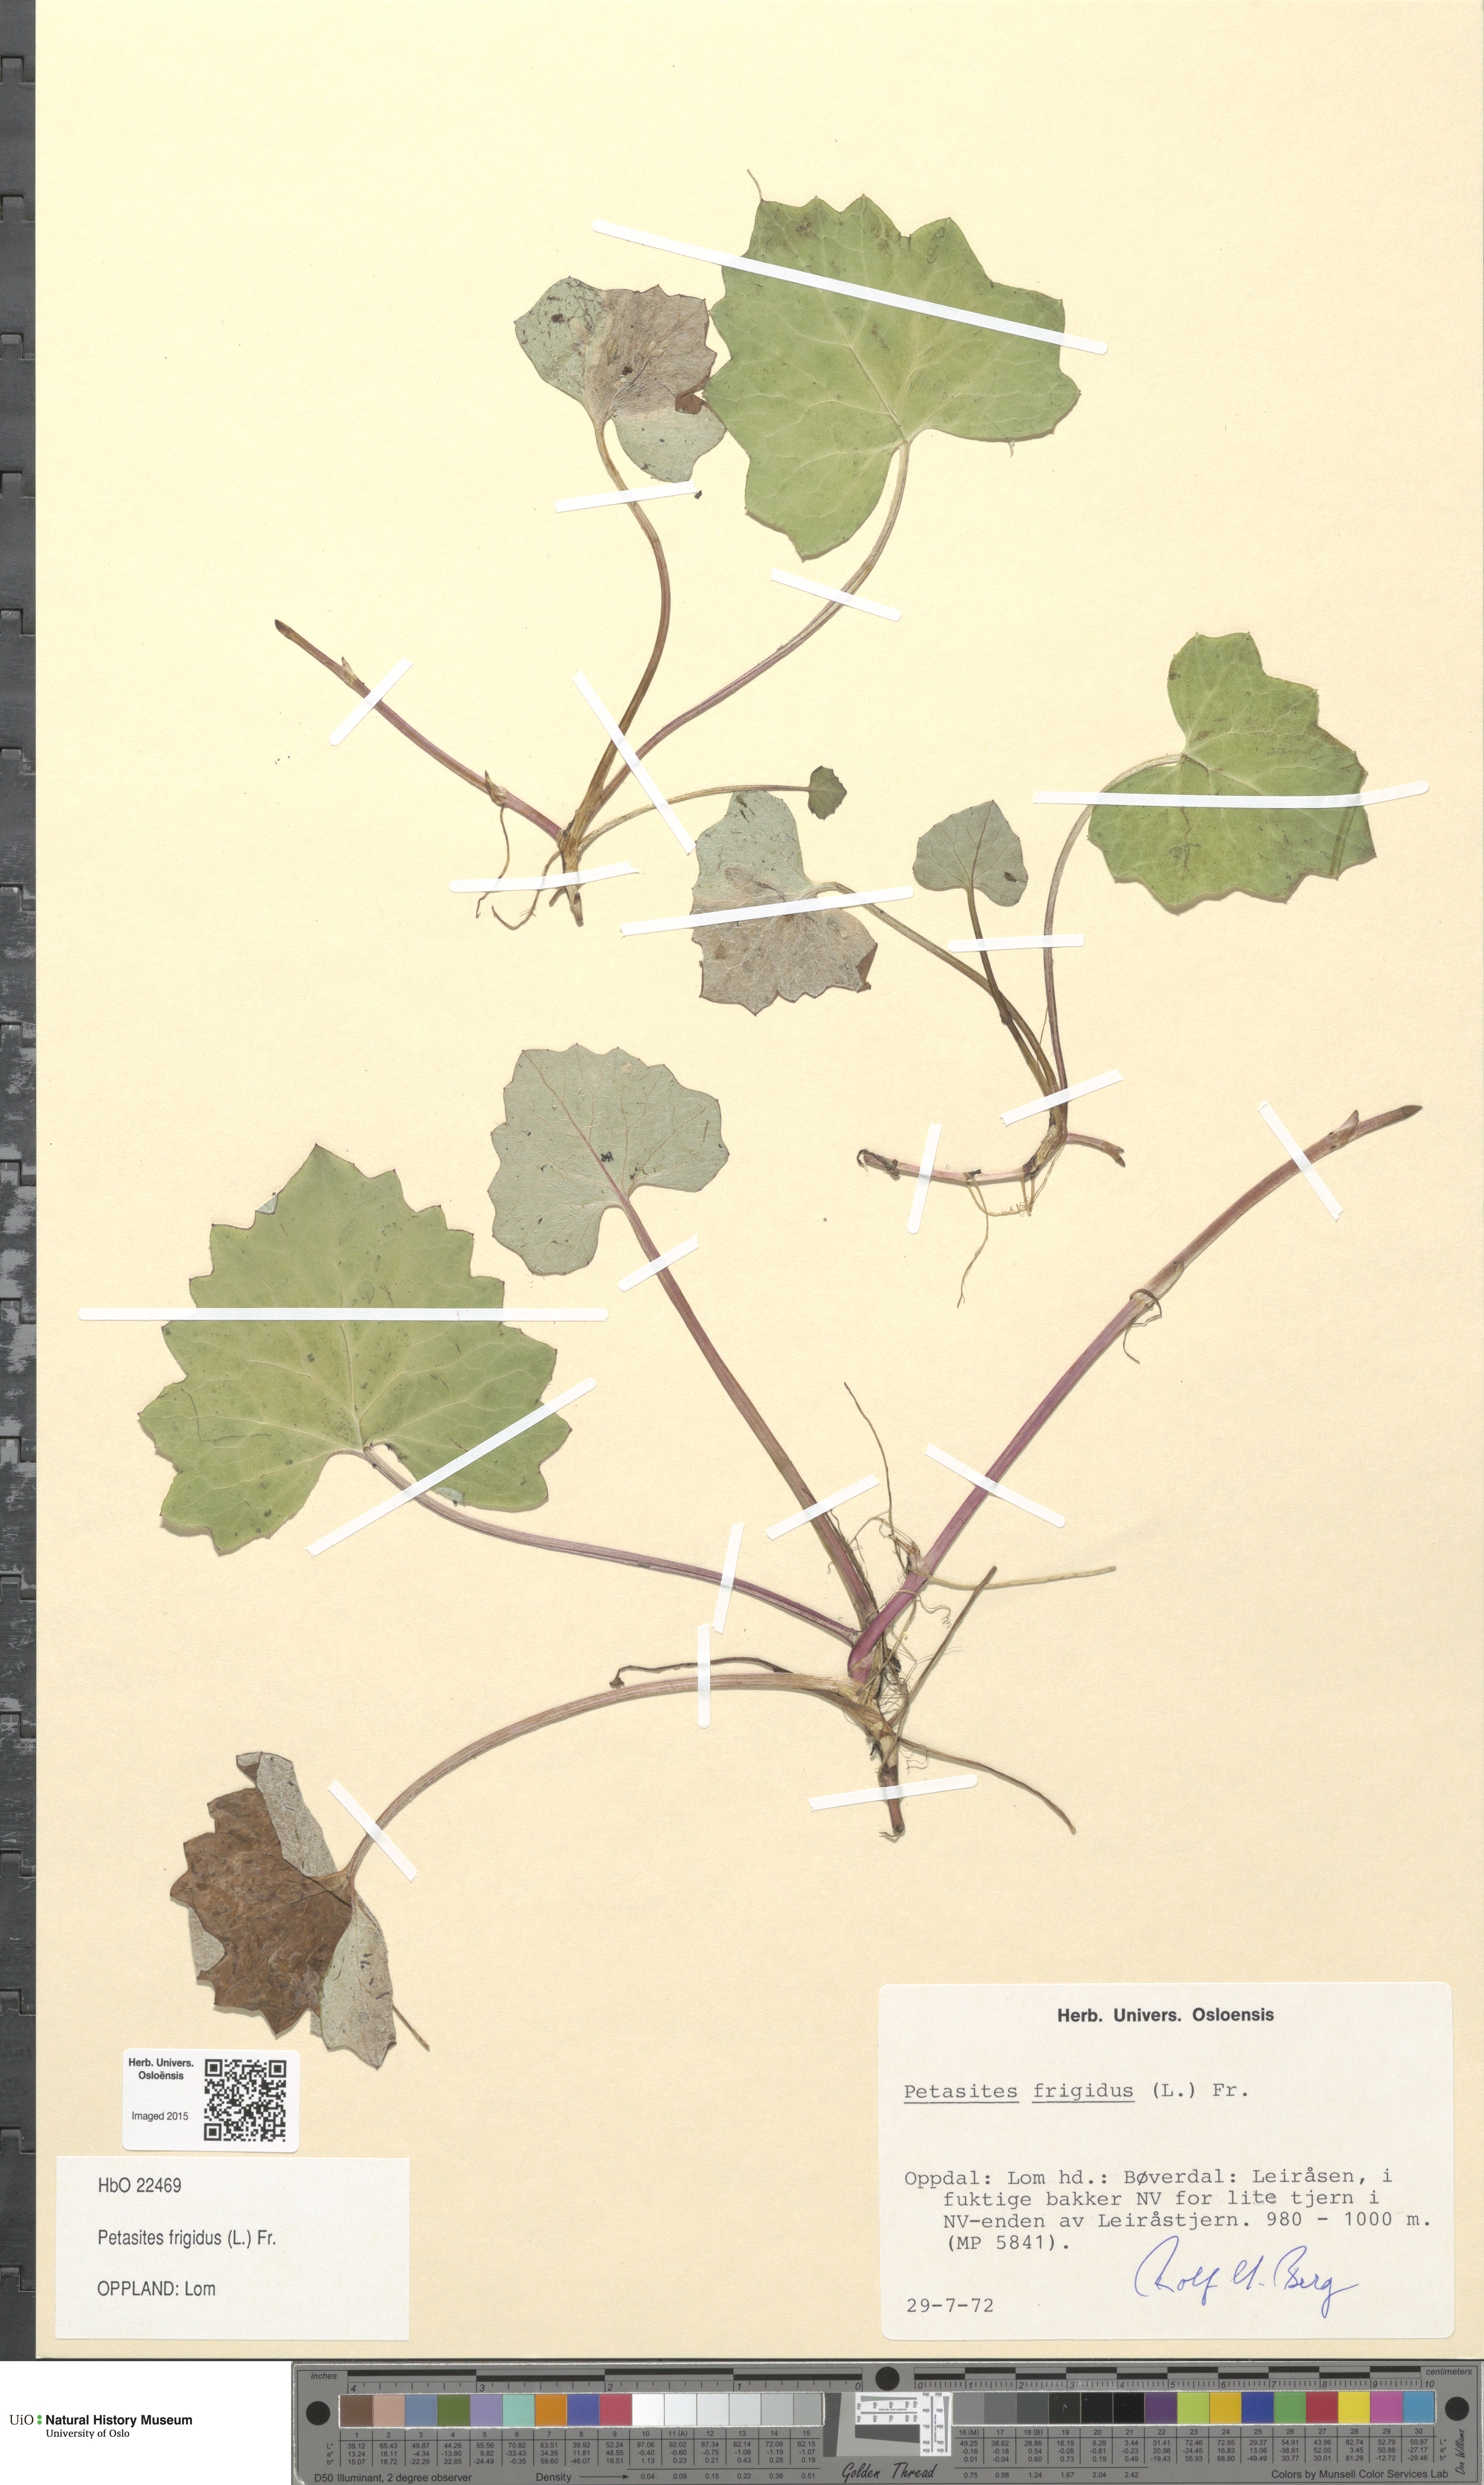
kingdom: Plantae
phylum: Tracheophyta
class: Magnoliopsida
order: Asterales
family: Asteraceae
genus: Petasites
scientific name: Petasites frigidus
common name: Arctic butterbur
